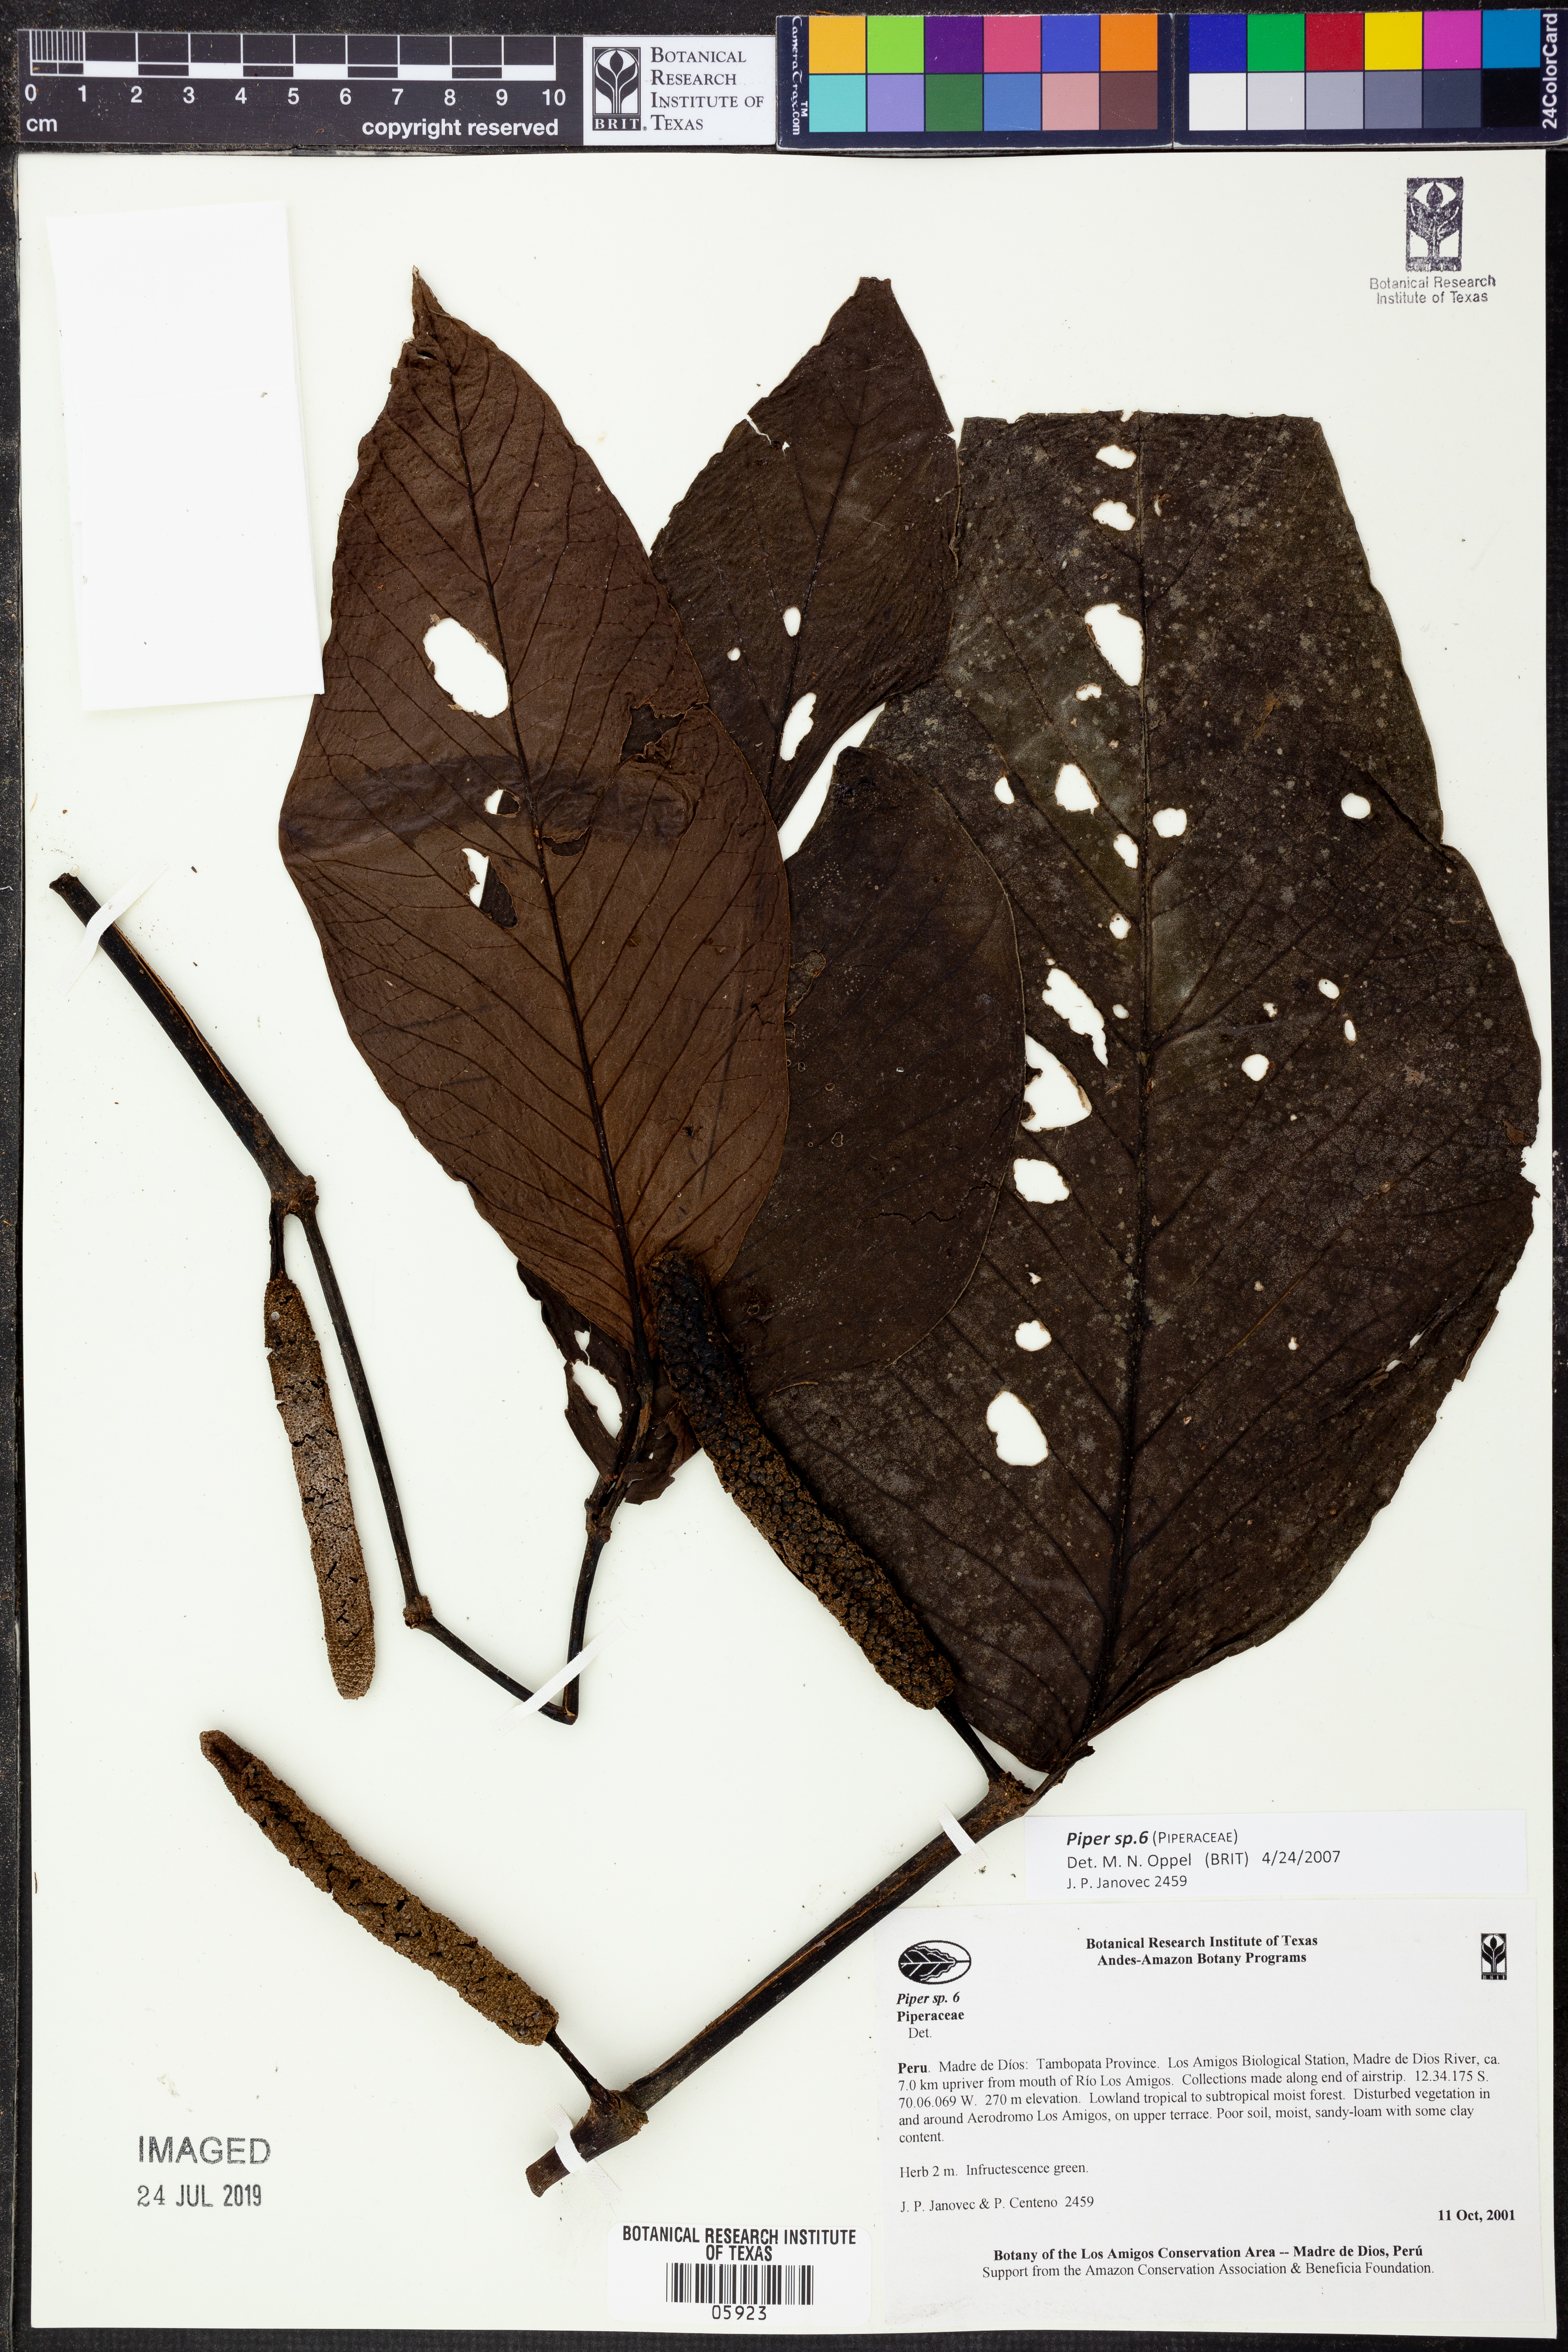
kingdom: Plantae
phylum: Tracheophyta
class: Magnoliopsida
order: Piperales
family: Piperaceae
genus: Piper
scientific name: Piper
